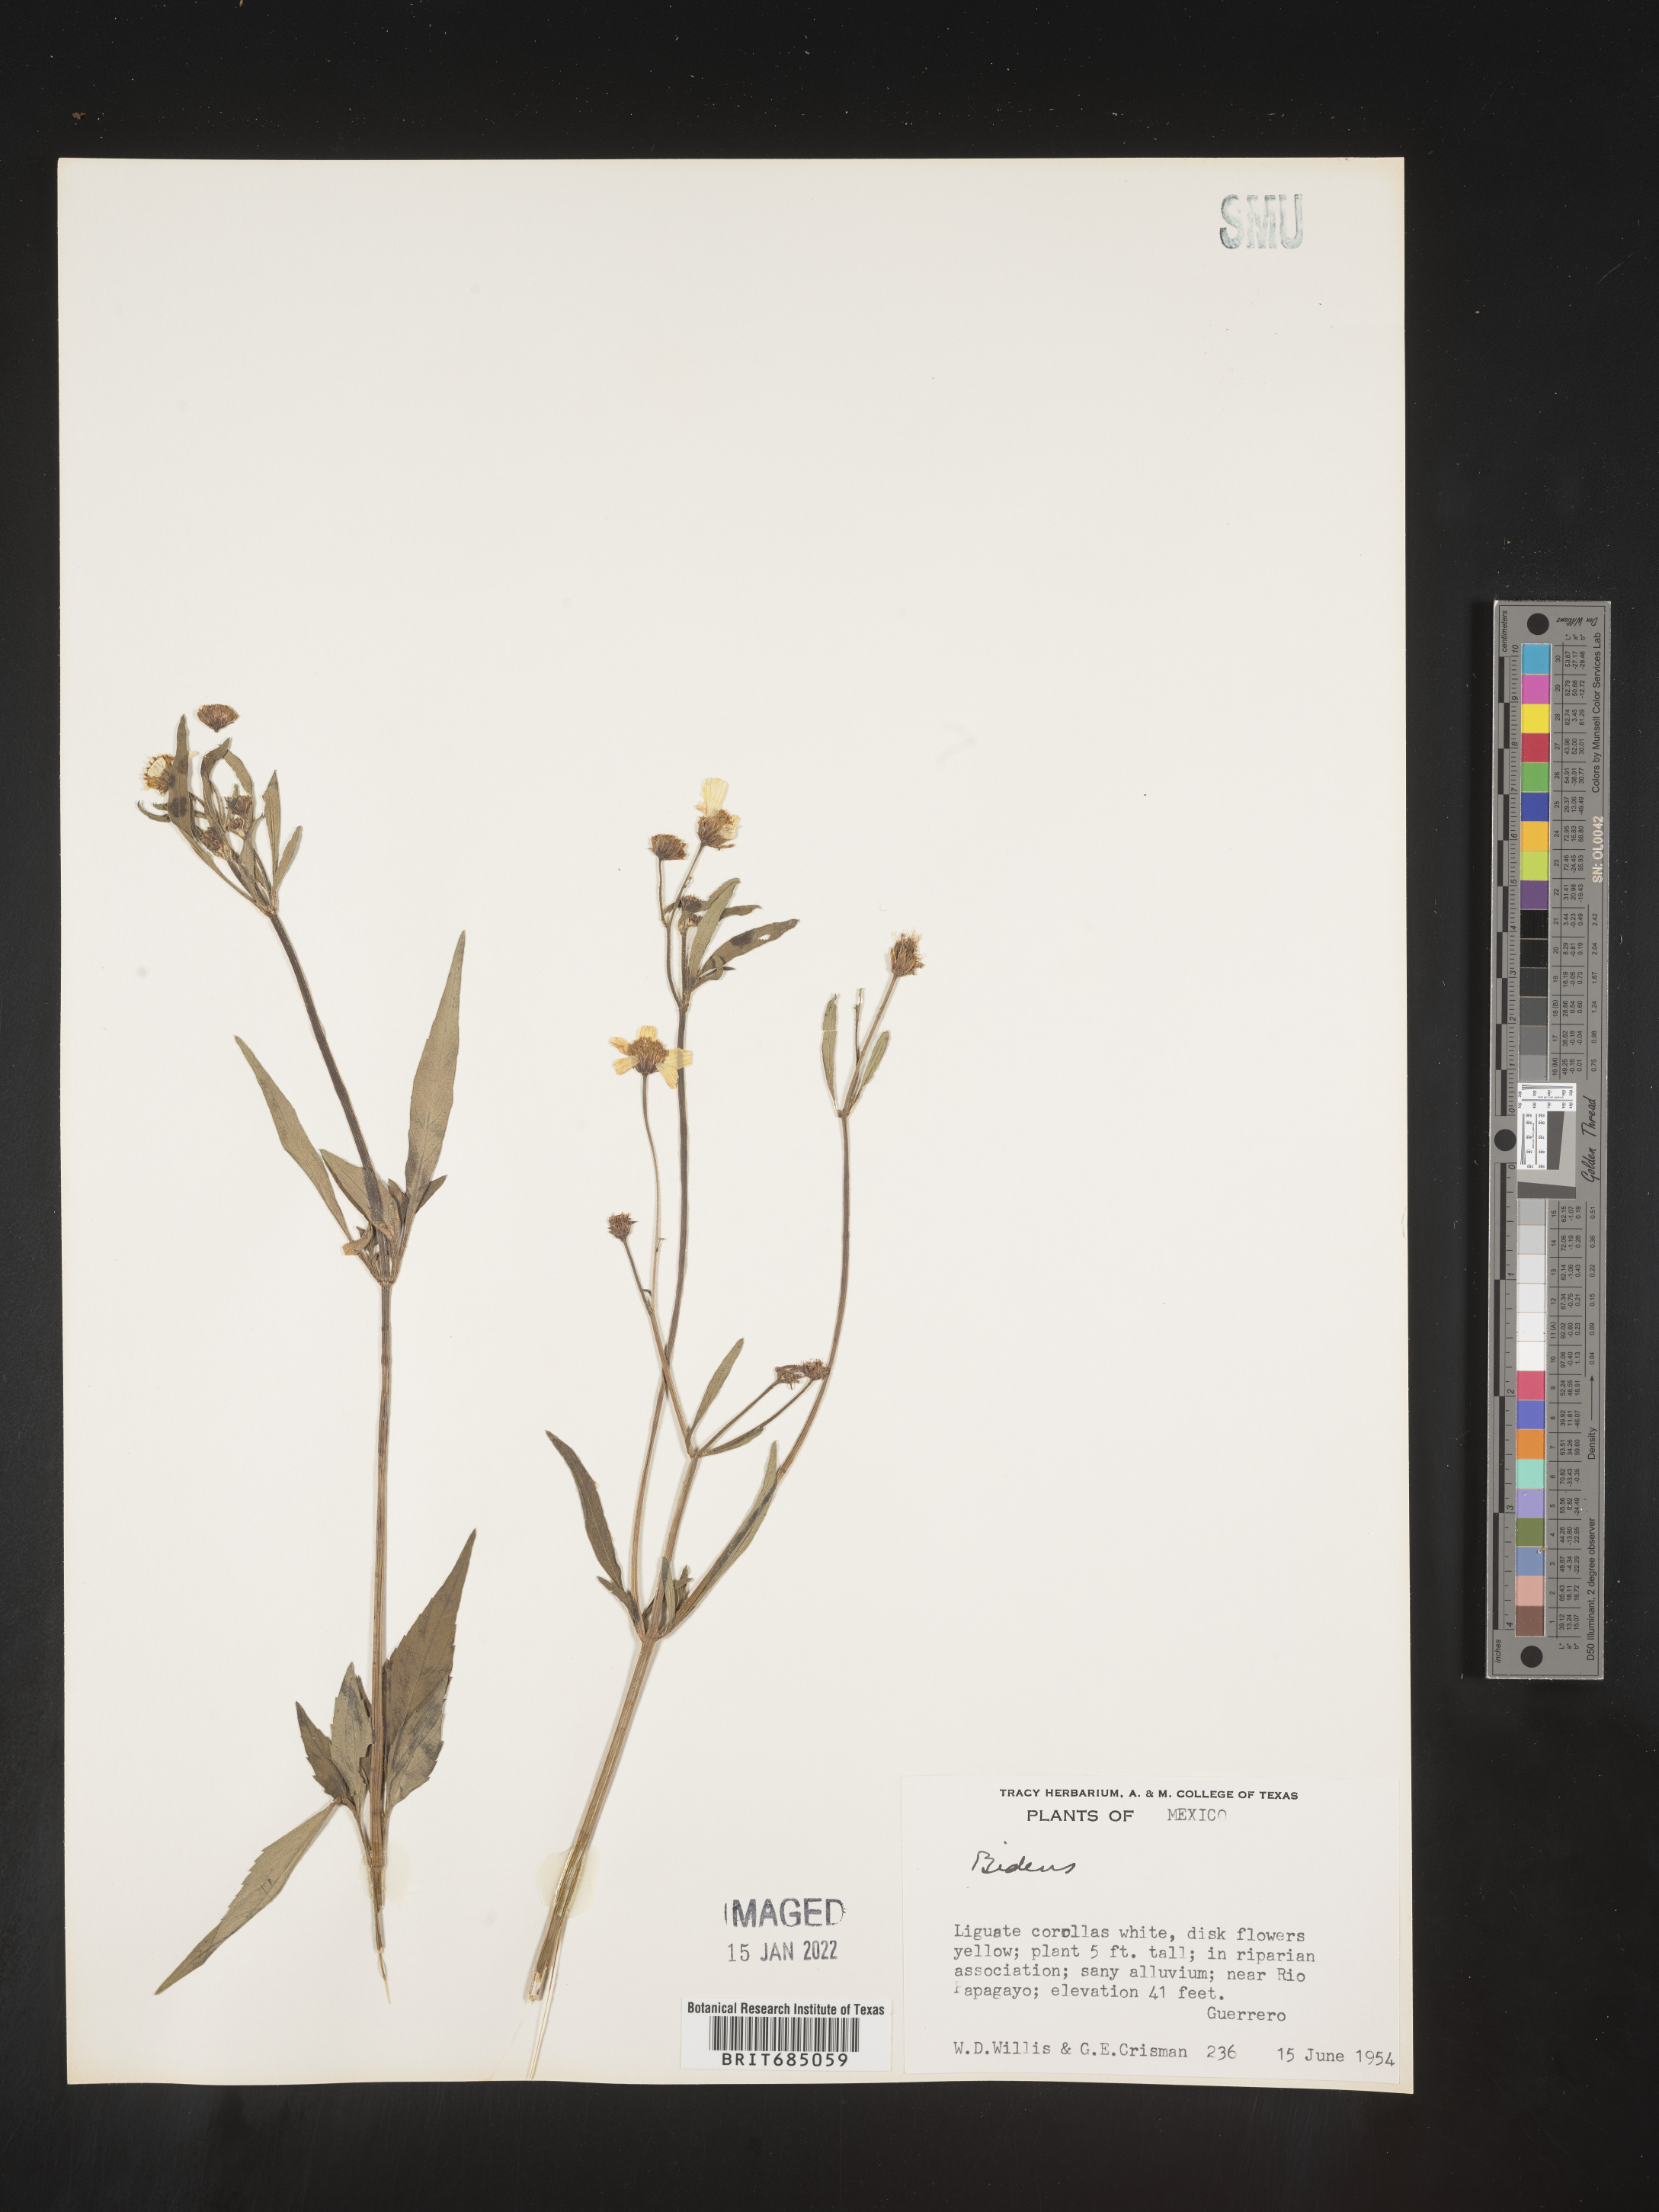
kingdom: Plantae
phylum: Tracheophyta
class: Magnoliopsida
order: Asterales
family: Asteraceae
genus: Bidens
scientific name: Bidens
